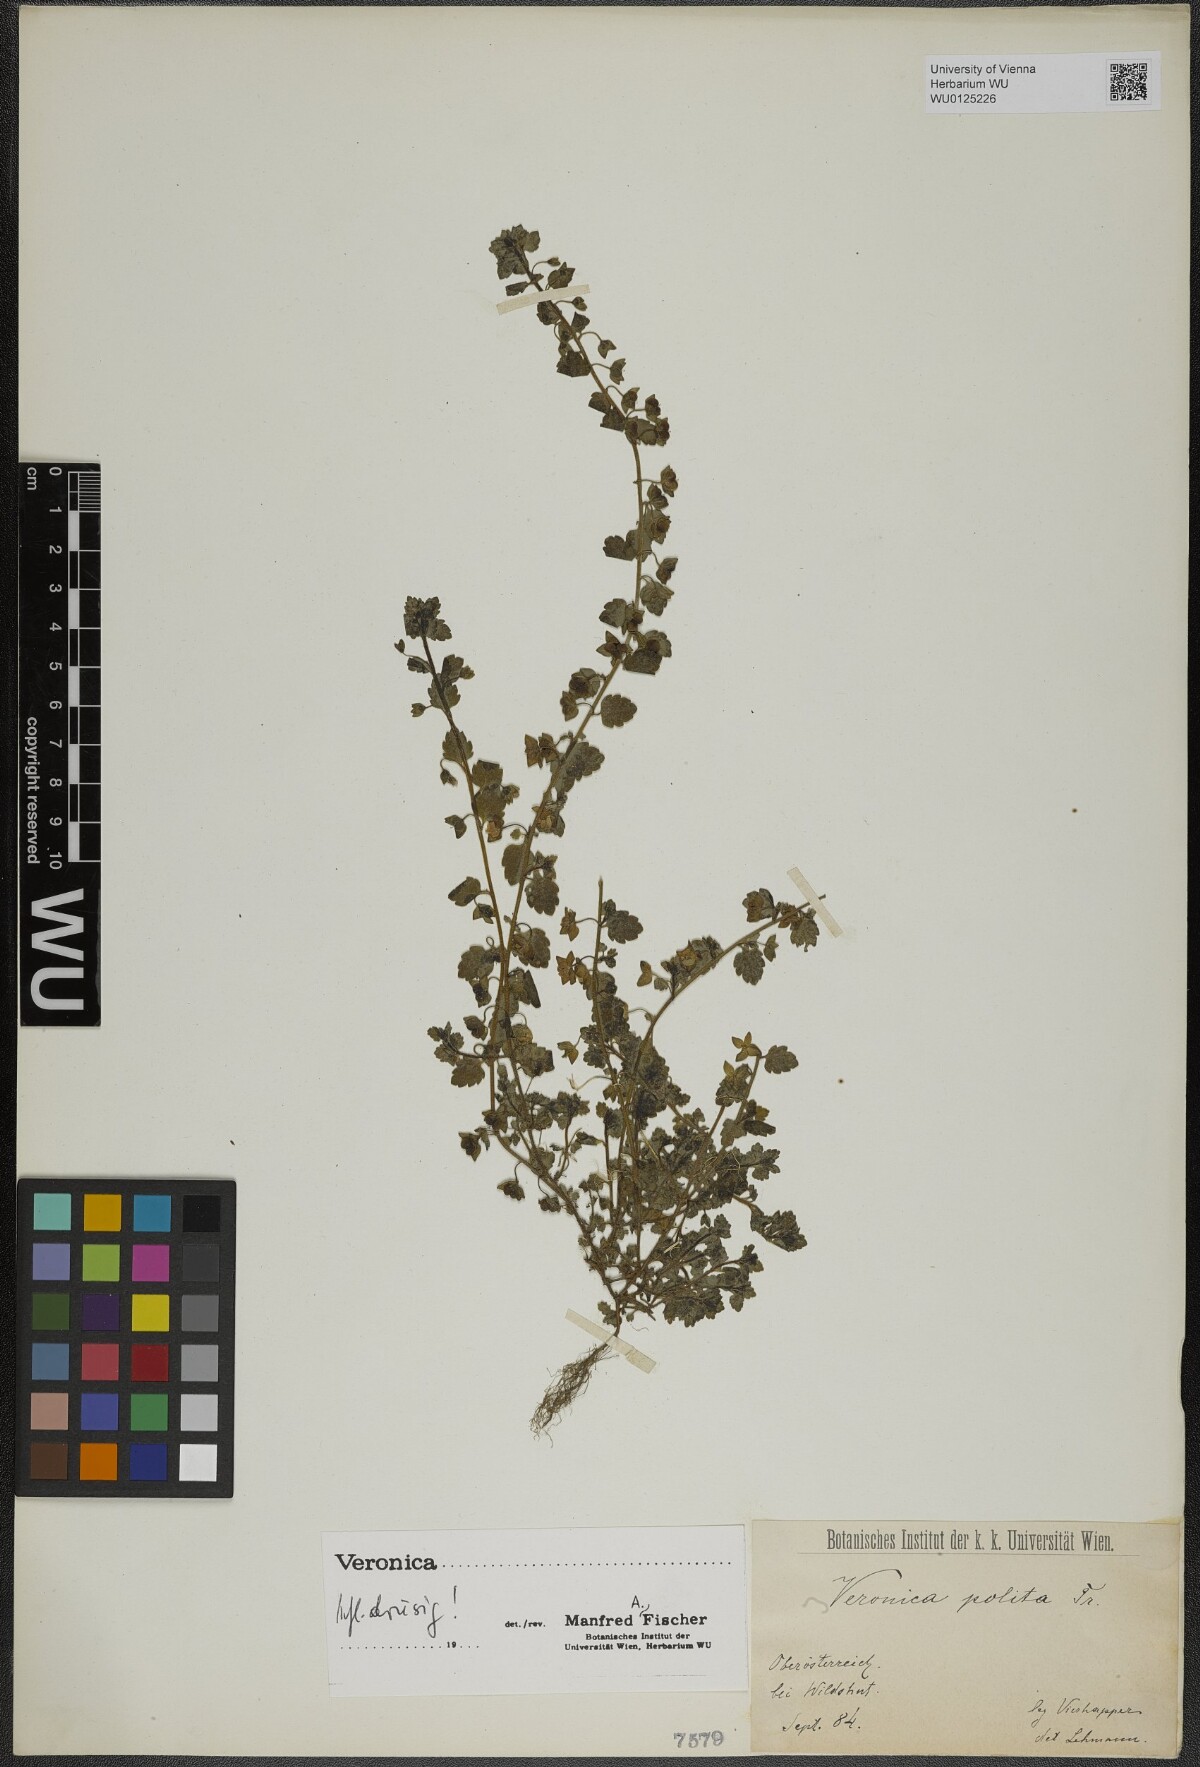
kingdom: Plantae
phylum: Tracheophyta
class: Magnoliopsida
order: Lamiales
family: Plantaginaceae
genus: Veronica
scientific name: Veronica polita
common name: Grey field-speedwell
